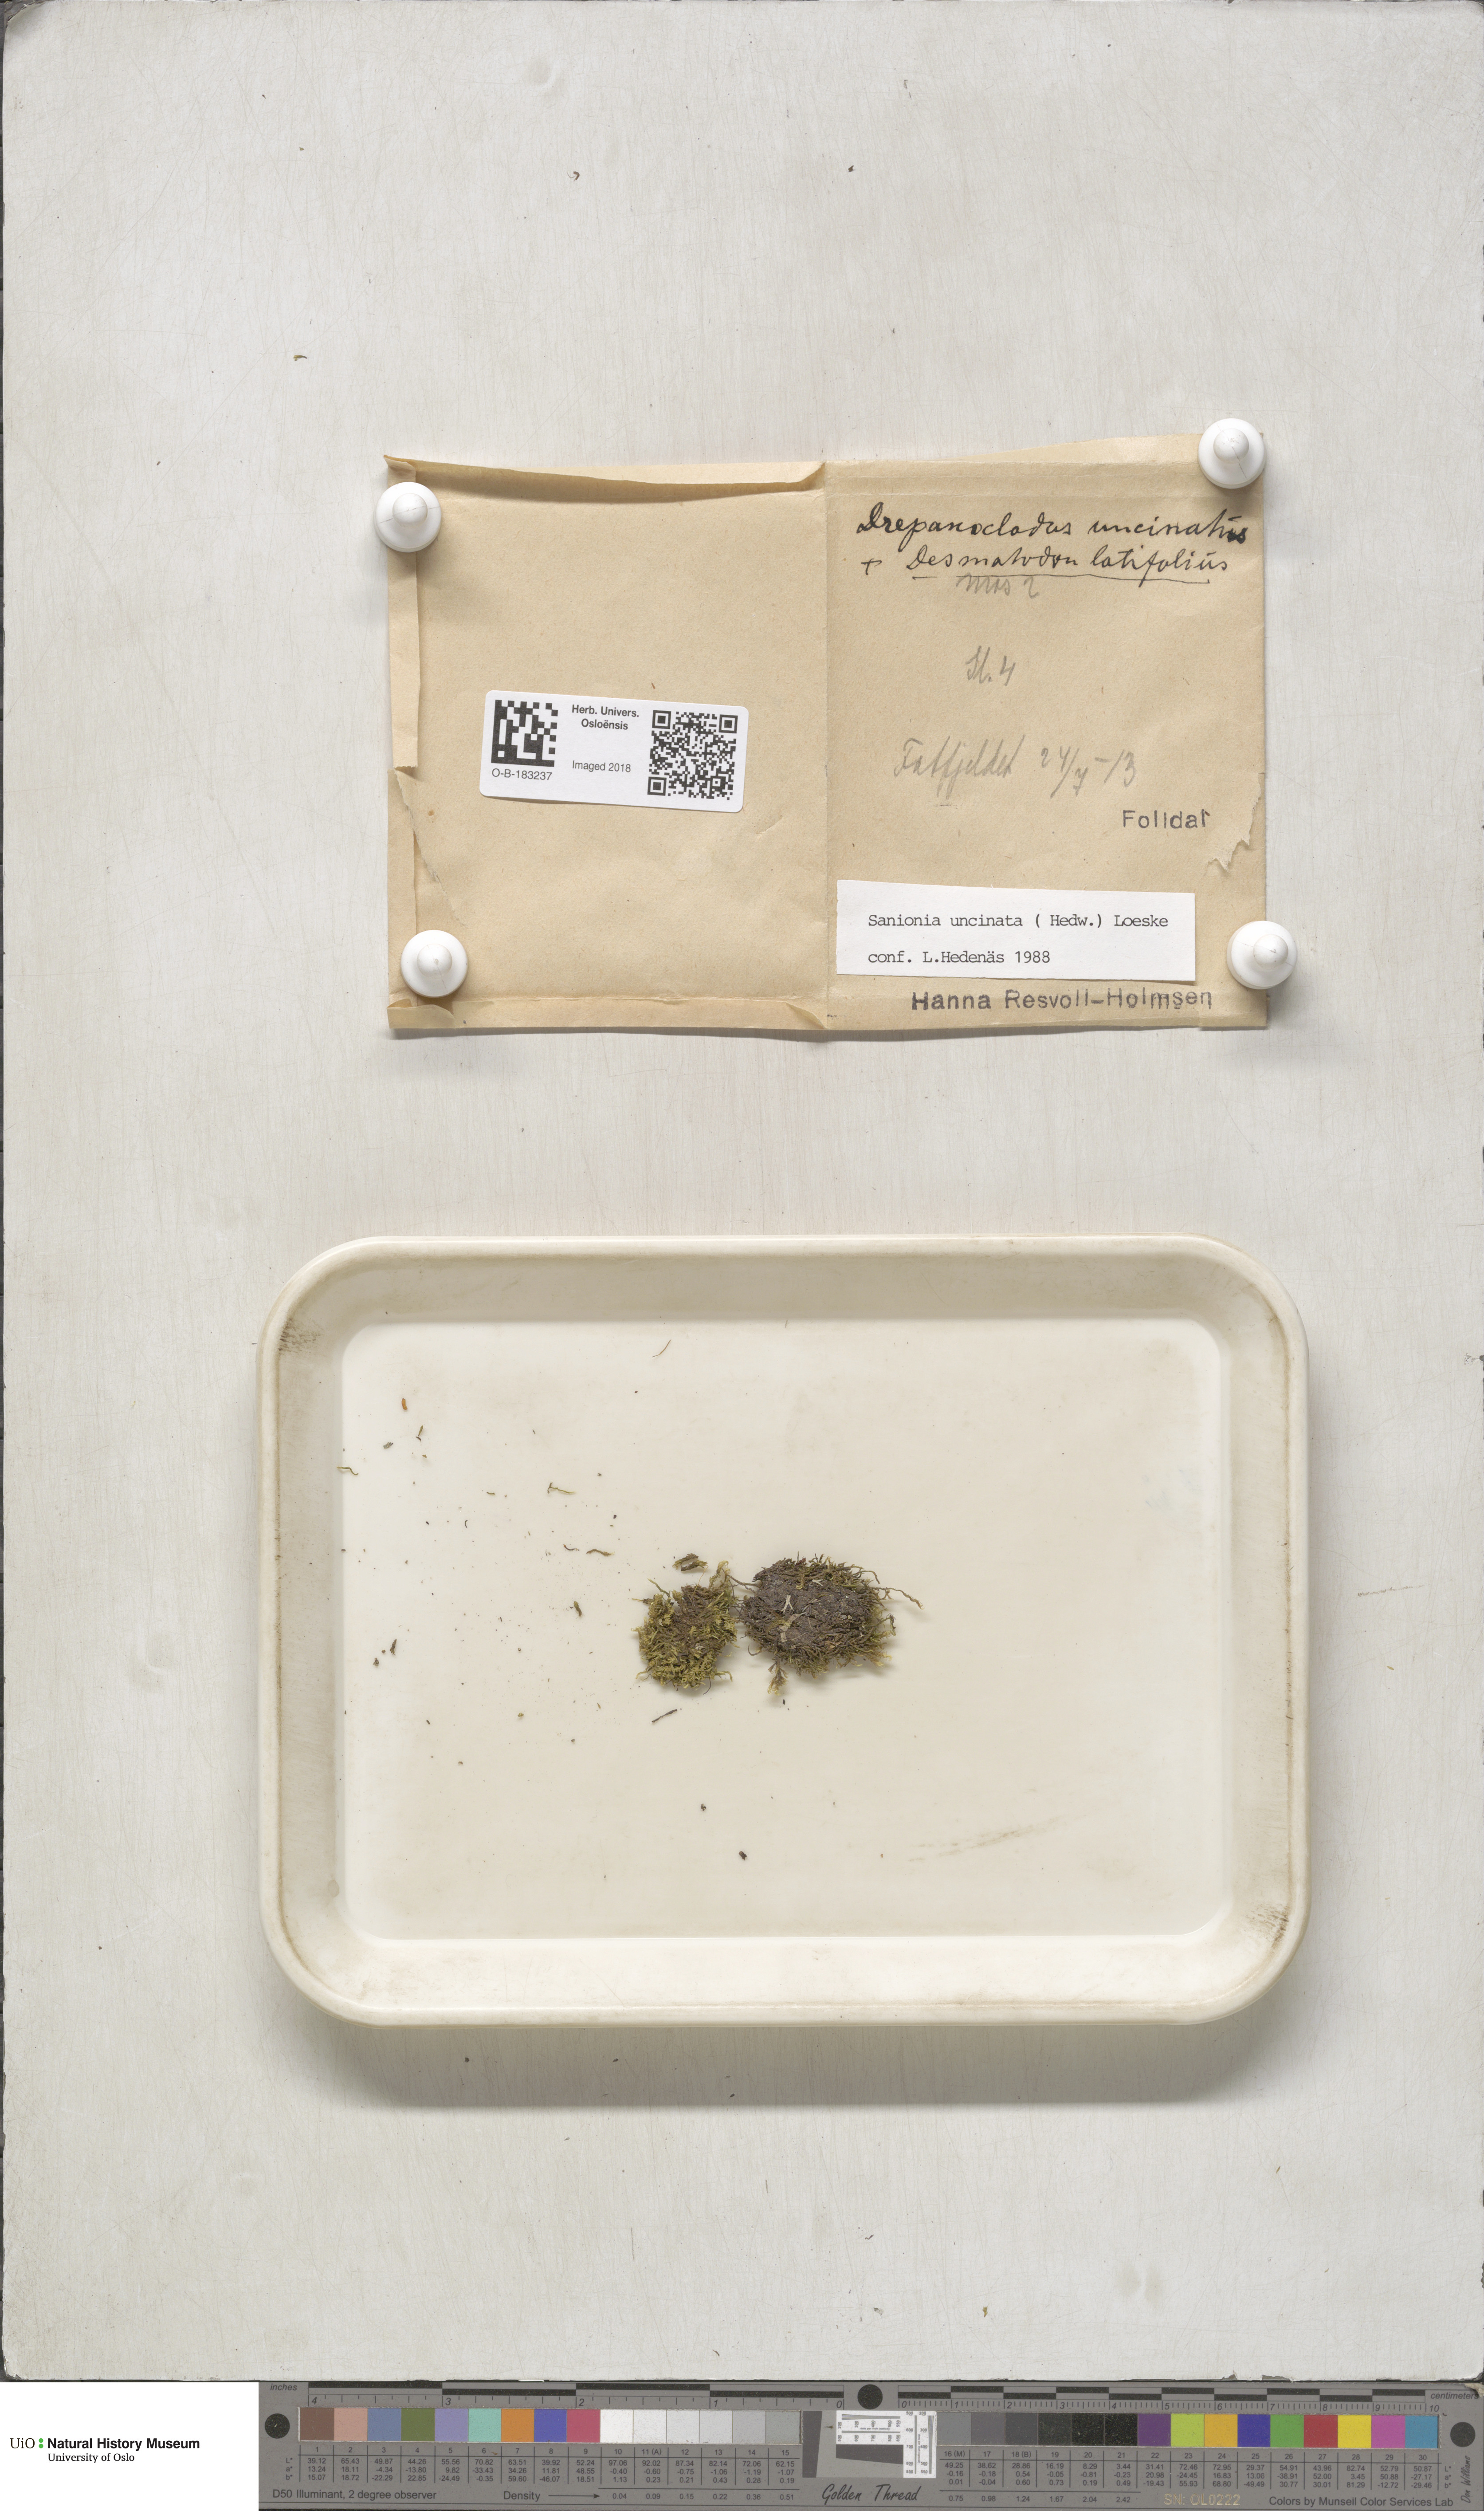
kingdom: Plantae
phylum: Bryophyta
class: Bryopsida
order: Hypnales
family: Scorpidiaceae
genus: Sanionia
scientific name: Sanionia uncinata
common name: Sickle moss
